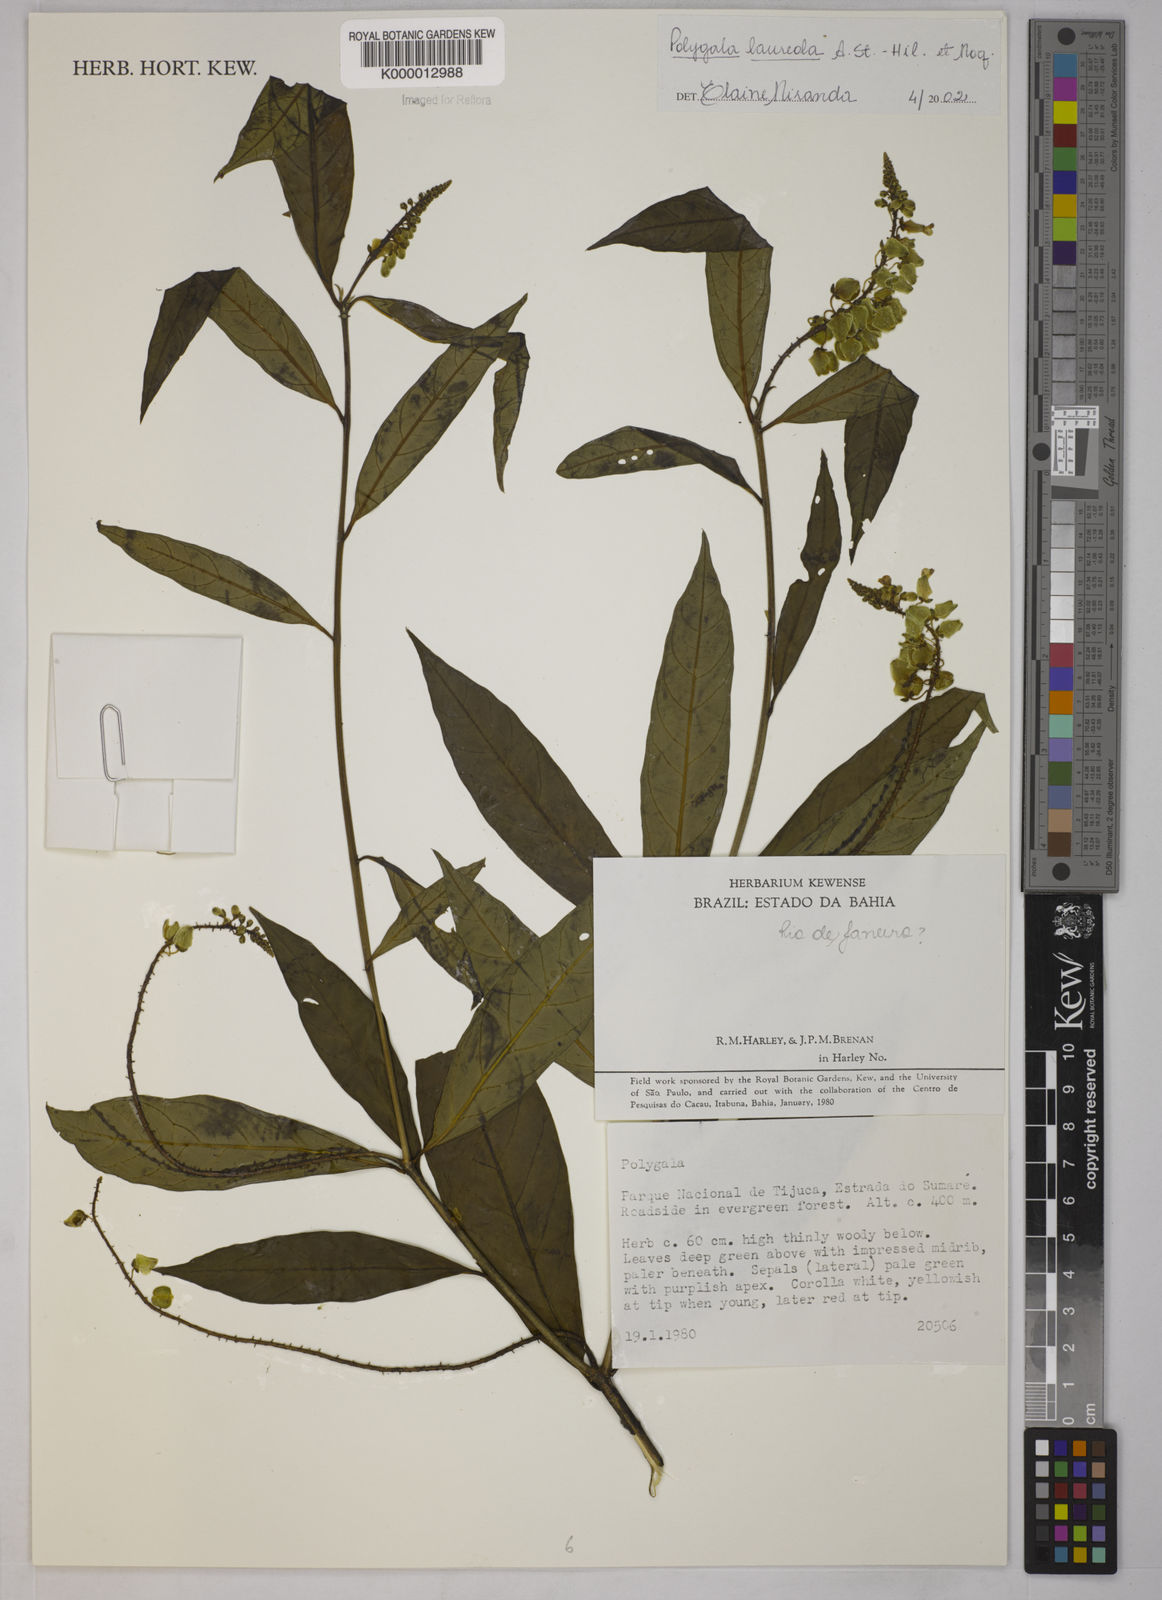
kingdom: Plantae
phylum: Tracheophyta
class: Magnoliopsida
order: Fabales
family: Polygalaceae
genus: Caamembeca
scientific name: Caamembeca salicifolia
